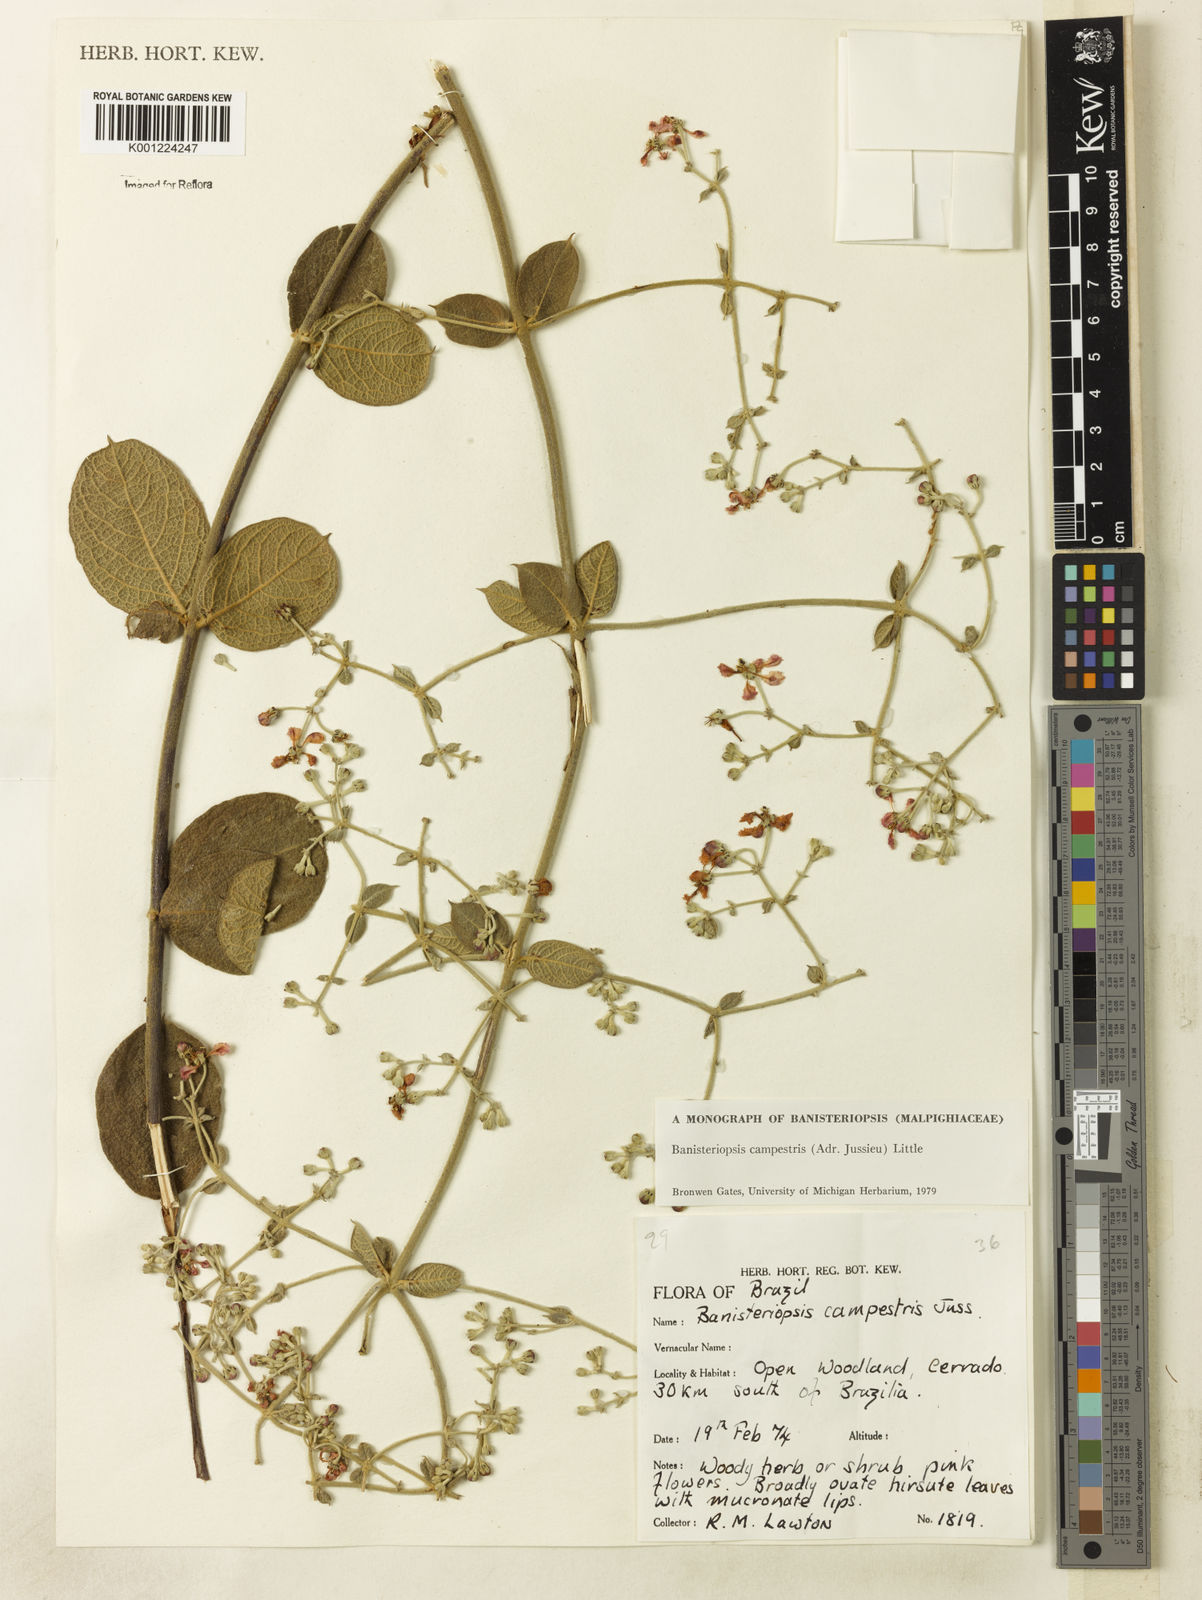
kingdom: Plantae
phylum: Tracheophyta
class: Magnoliopsida
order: Malpighiales
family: Malpighiaceae
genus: Banisteriopsis
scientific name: Banisteriopsis campestris
